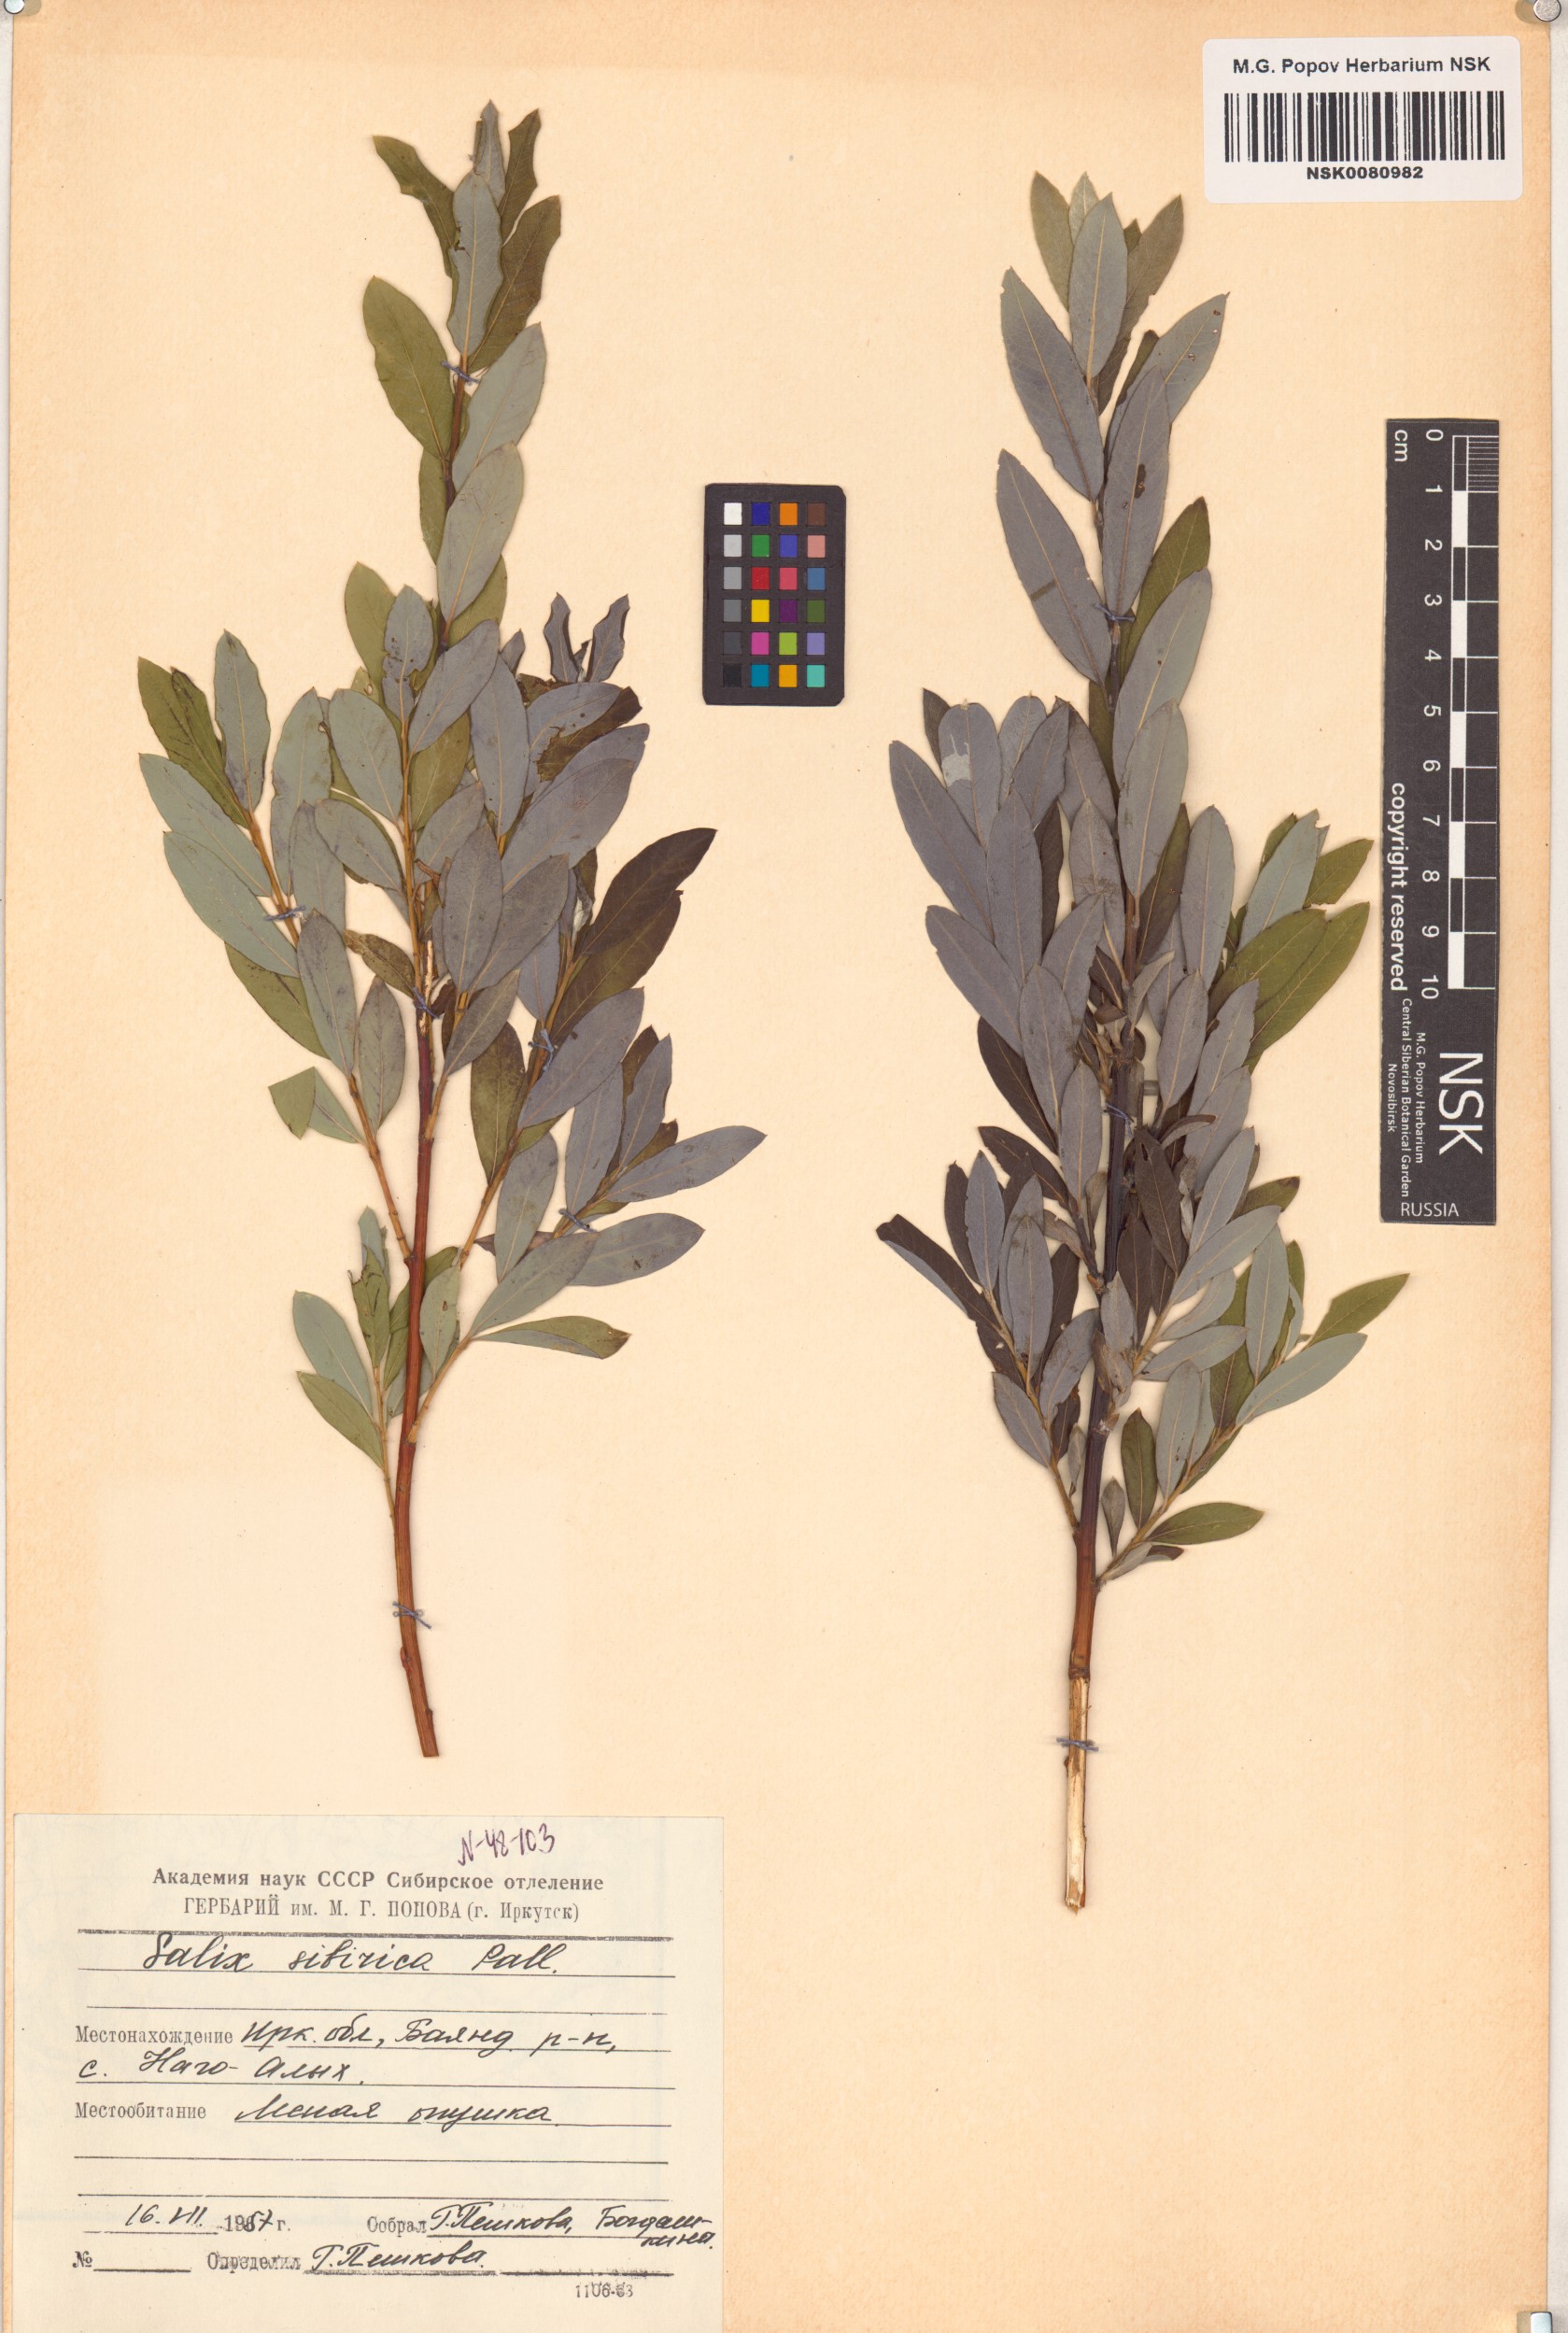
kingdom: Plantae
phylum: Tracheophyta
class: Magnoliopsida
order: Malpighiales
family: Salicaceae
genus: Salix
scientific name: Salix rosmarinifolia
